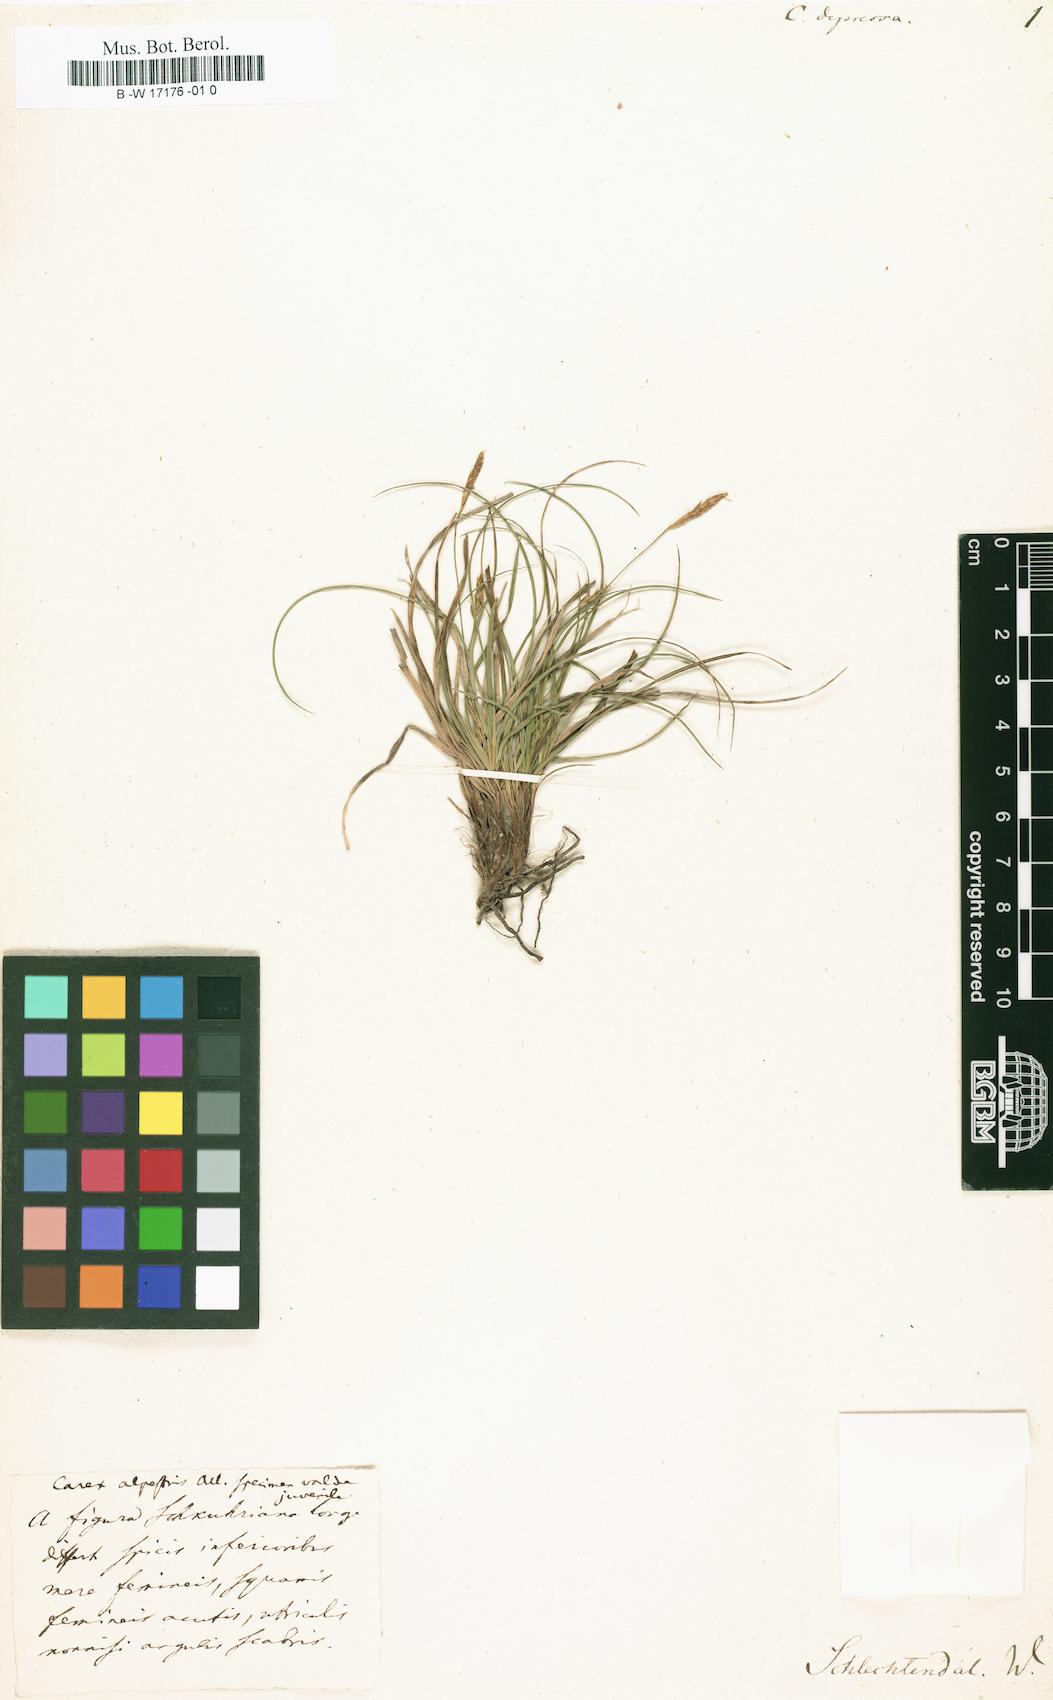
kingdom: Plantae
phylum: Tracheophyta
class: Liliopsida
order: Poales
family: Cyperaceae
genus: Carex
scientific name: Carex depressa
